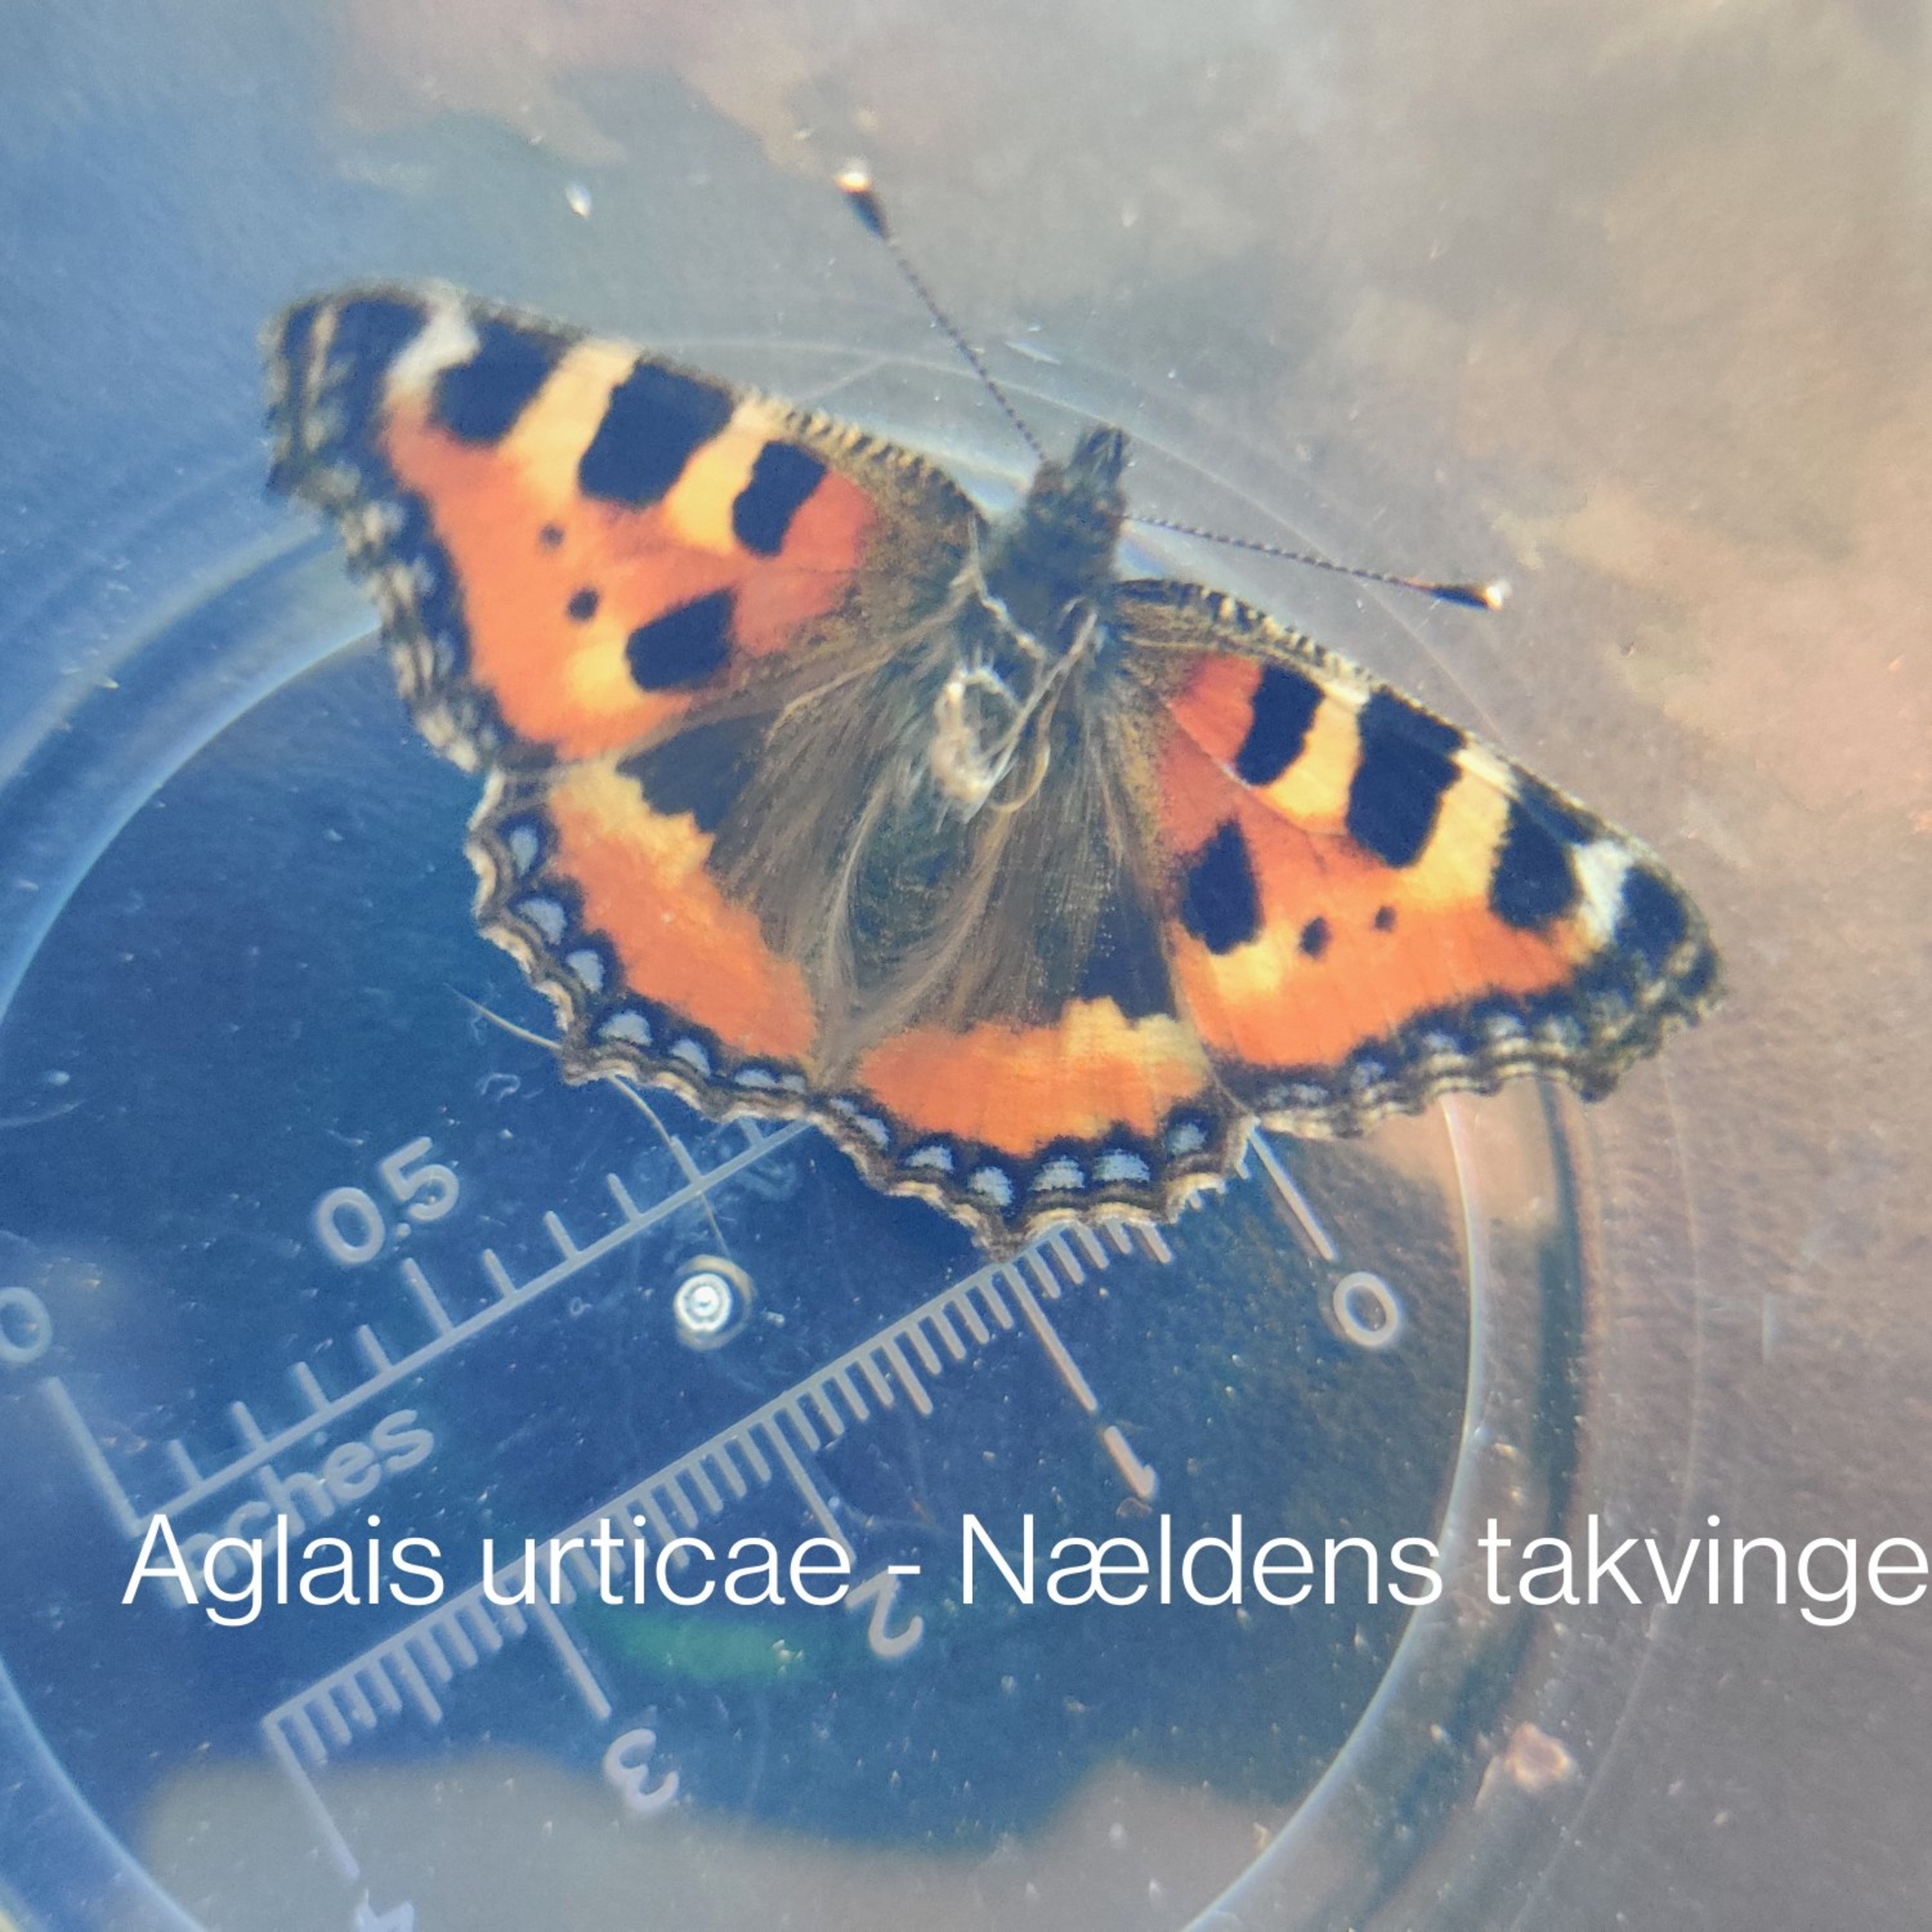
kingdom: Animalia
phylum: Arthropoda
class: Insecta
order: Lepidoptera
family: Nymphalidae
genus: Aglais
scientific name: Aglais urticae
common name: Nældens takvinge
